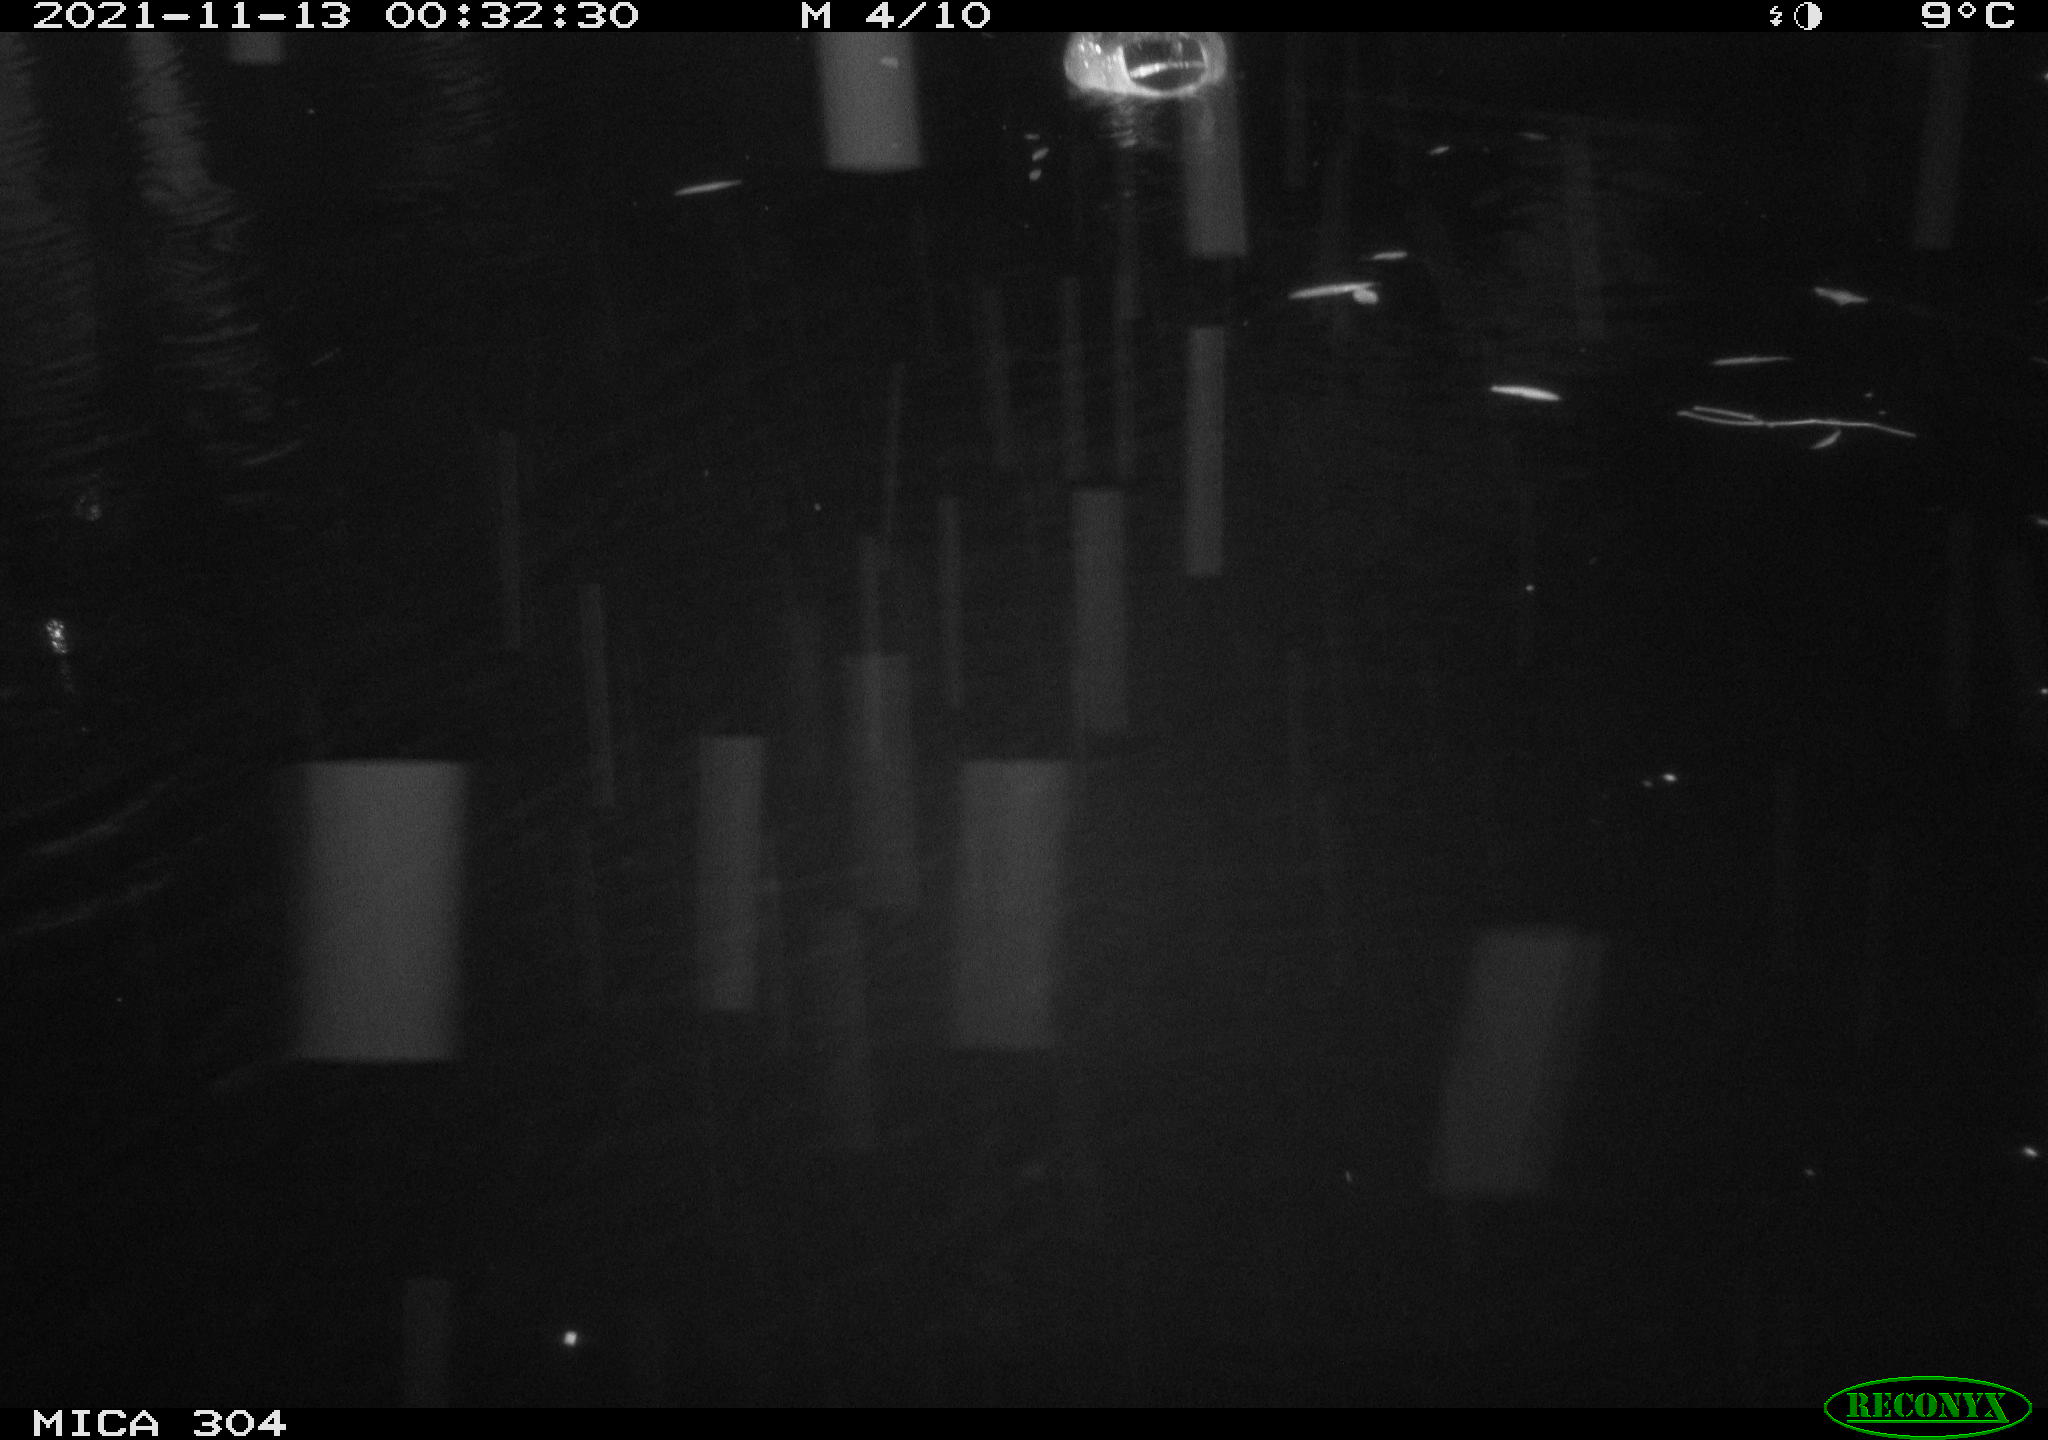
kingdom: Animalia
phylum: Chordata
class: Aves
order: Anseriformes
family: Anatidae
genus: Anas
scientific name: Anas platyrhynchos
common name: Mallard
